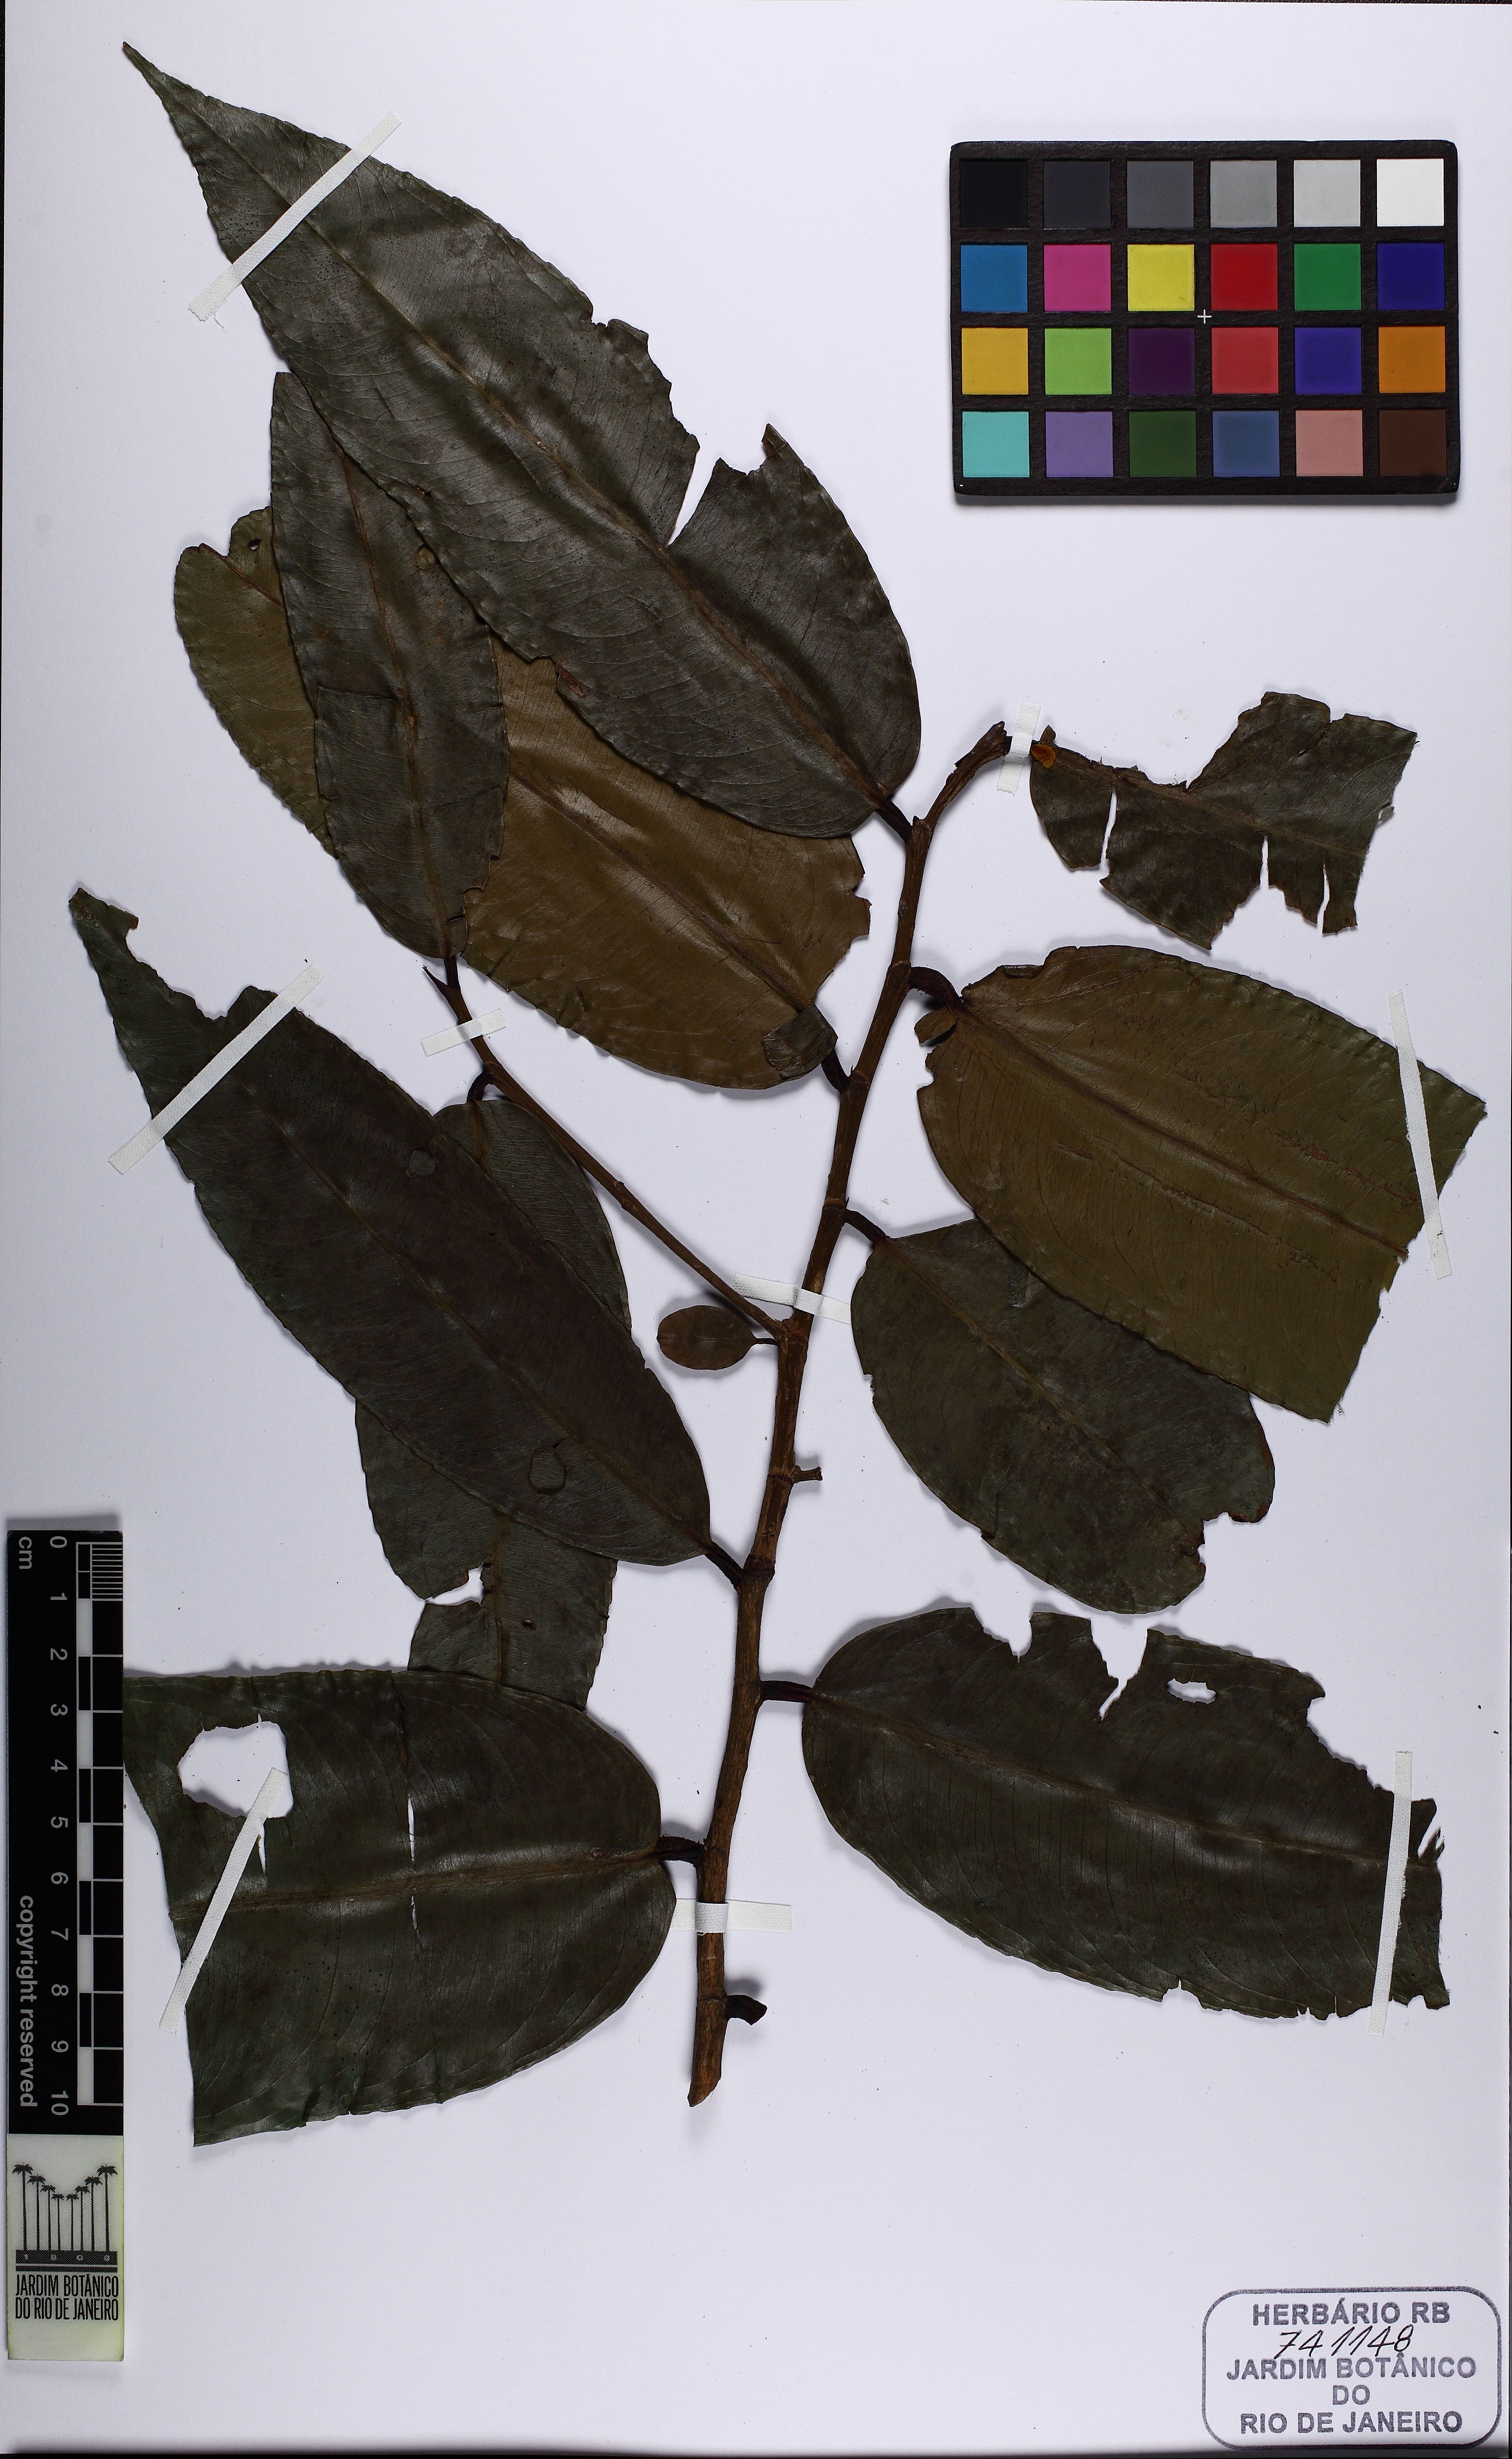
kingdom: Plantae
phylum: Tracheophyta
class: Magnoliopsida
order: Malpighiales
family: Ochnaceae
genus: Ouratea
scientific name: Ouratea multiflora
